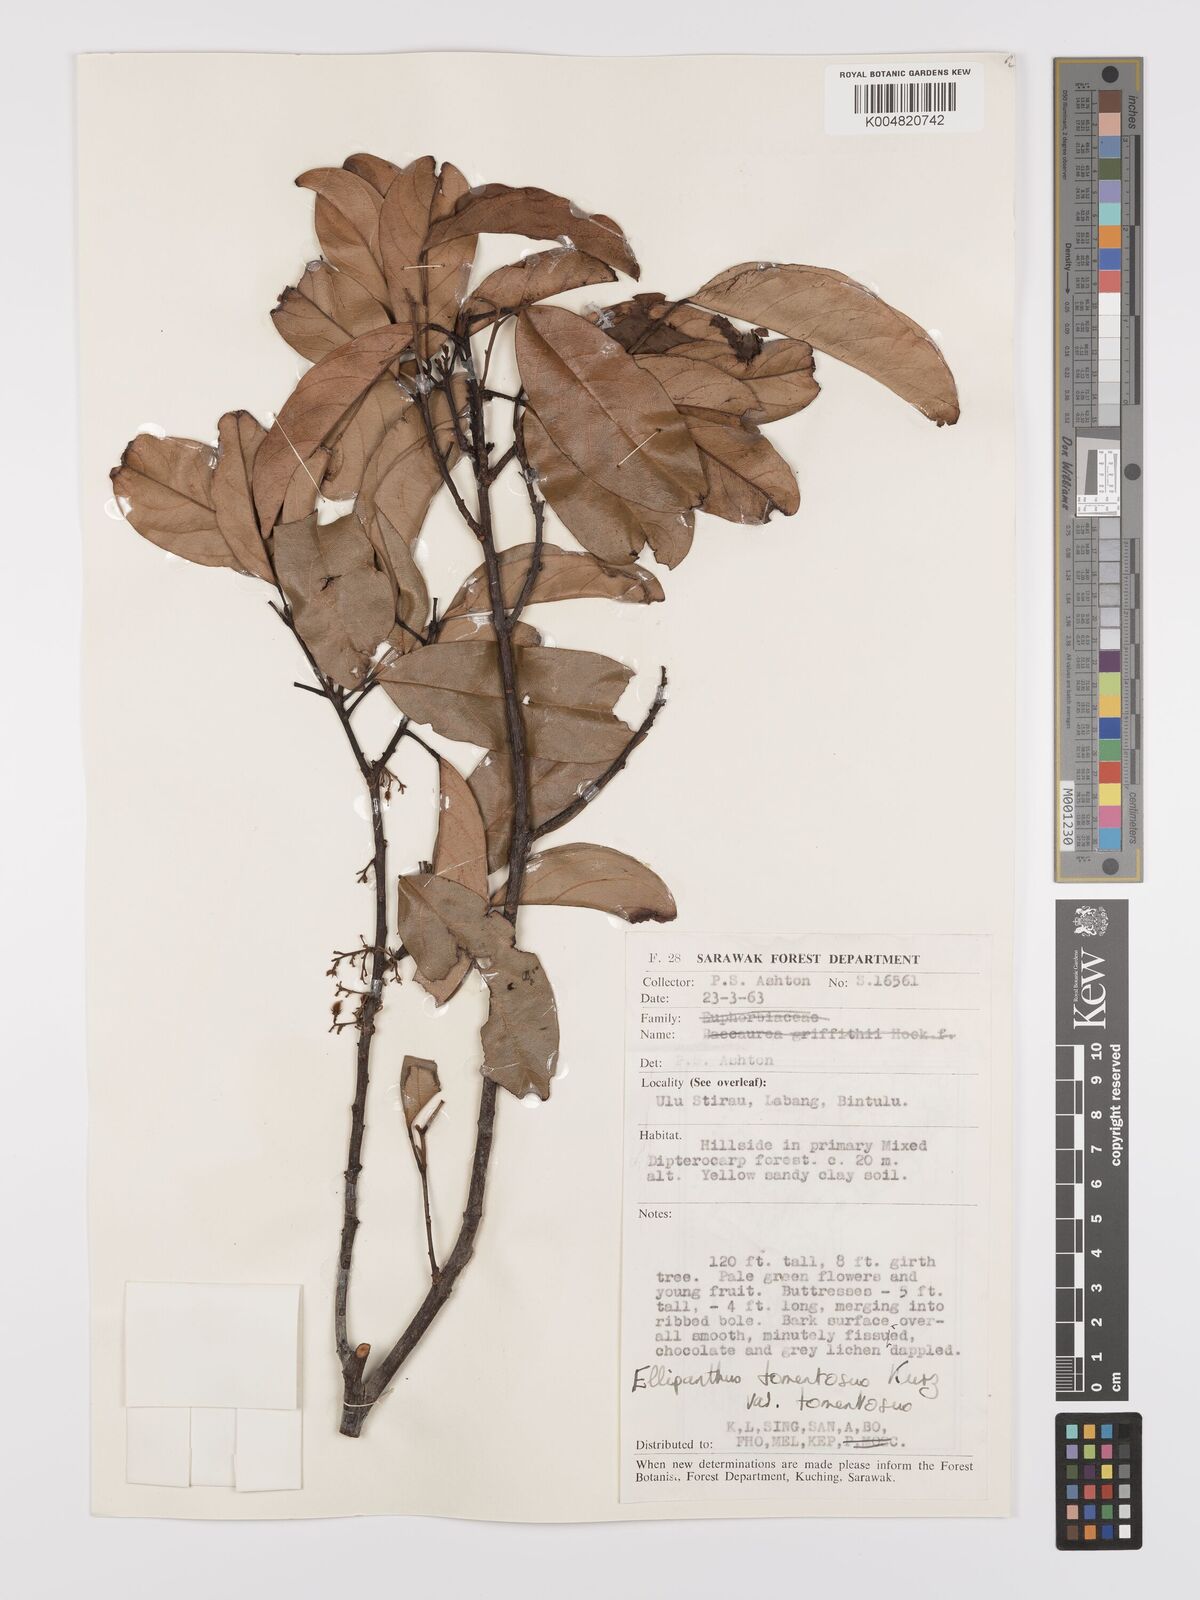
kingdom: Plantae
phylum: Tracheophyta
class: Magnoliopsida
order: Oxalidales
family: Connaraceae
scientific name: Connaraceae
